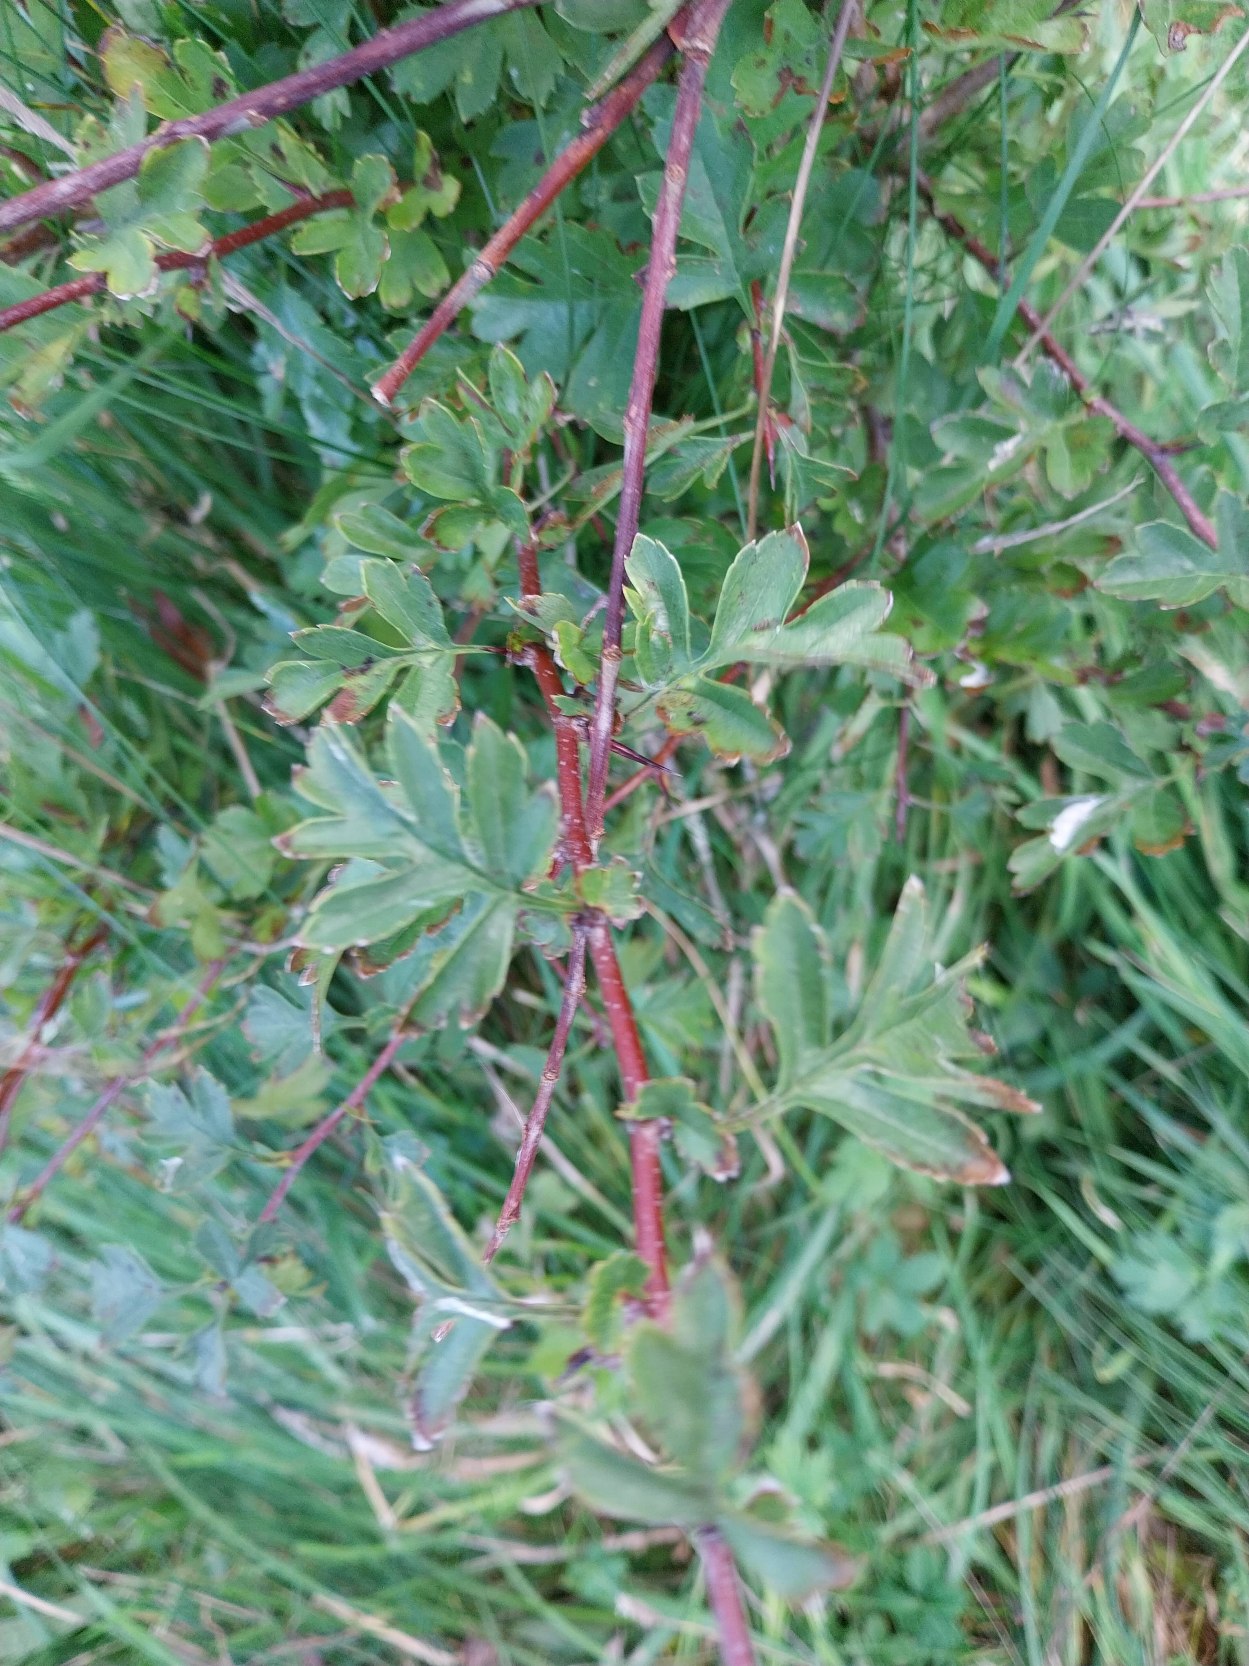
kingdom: Plantae
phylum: Tracheophyta
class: Magnoliopsida
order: Rosales
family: Rosaceae
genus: Crataegus
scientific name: Crataegus monogyna
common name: Engriflet hvidtjørn
